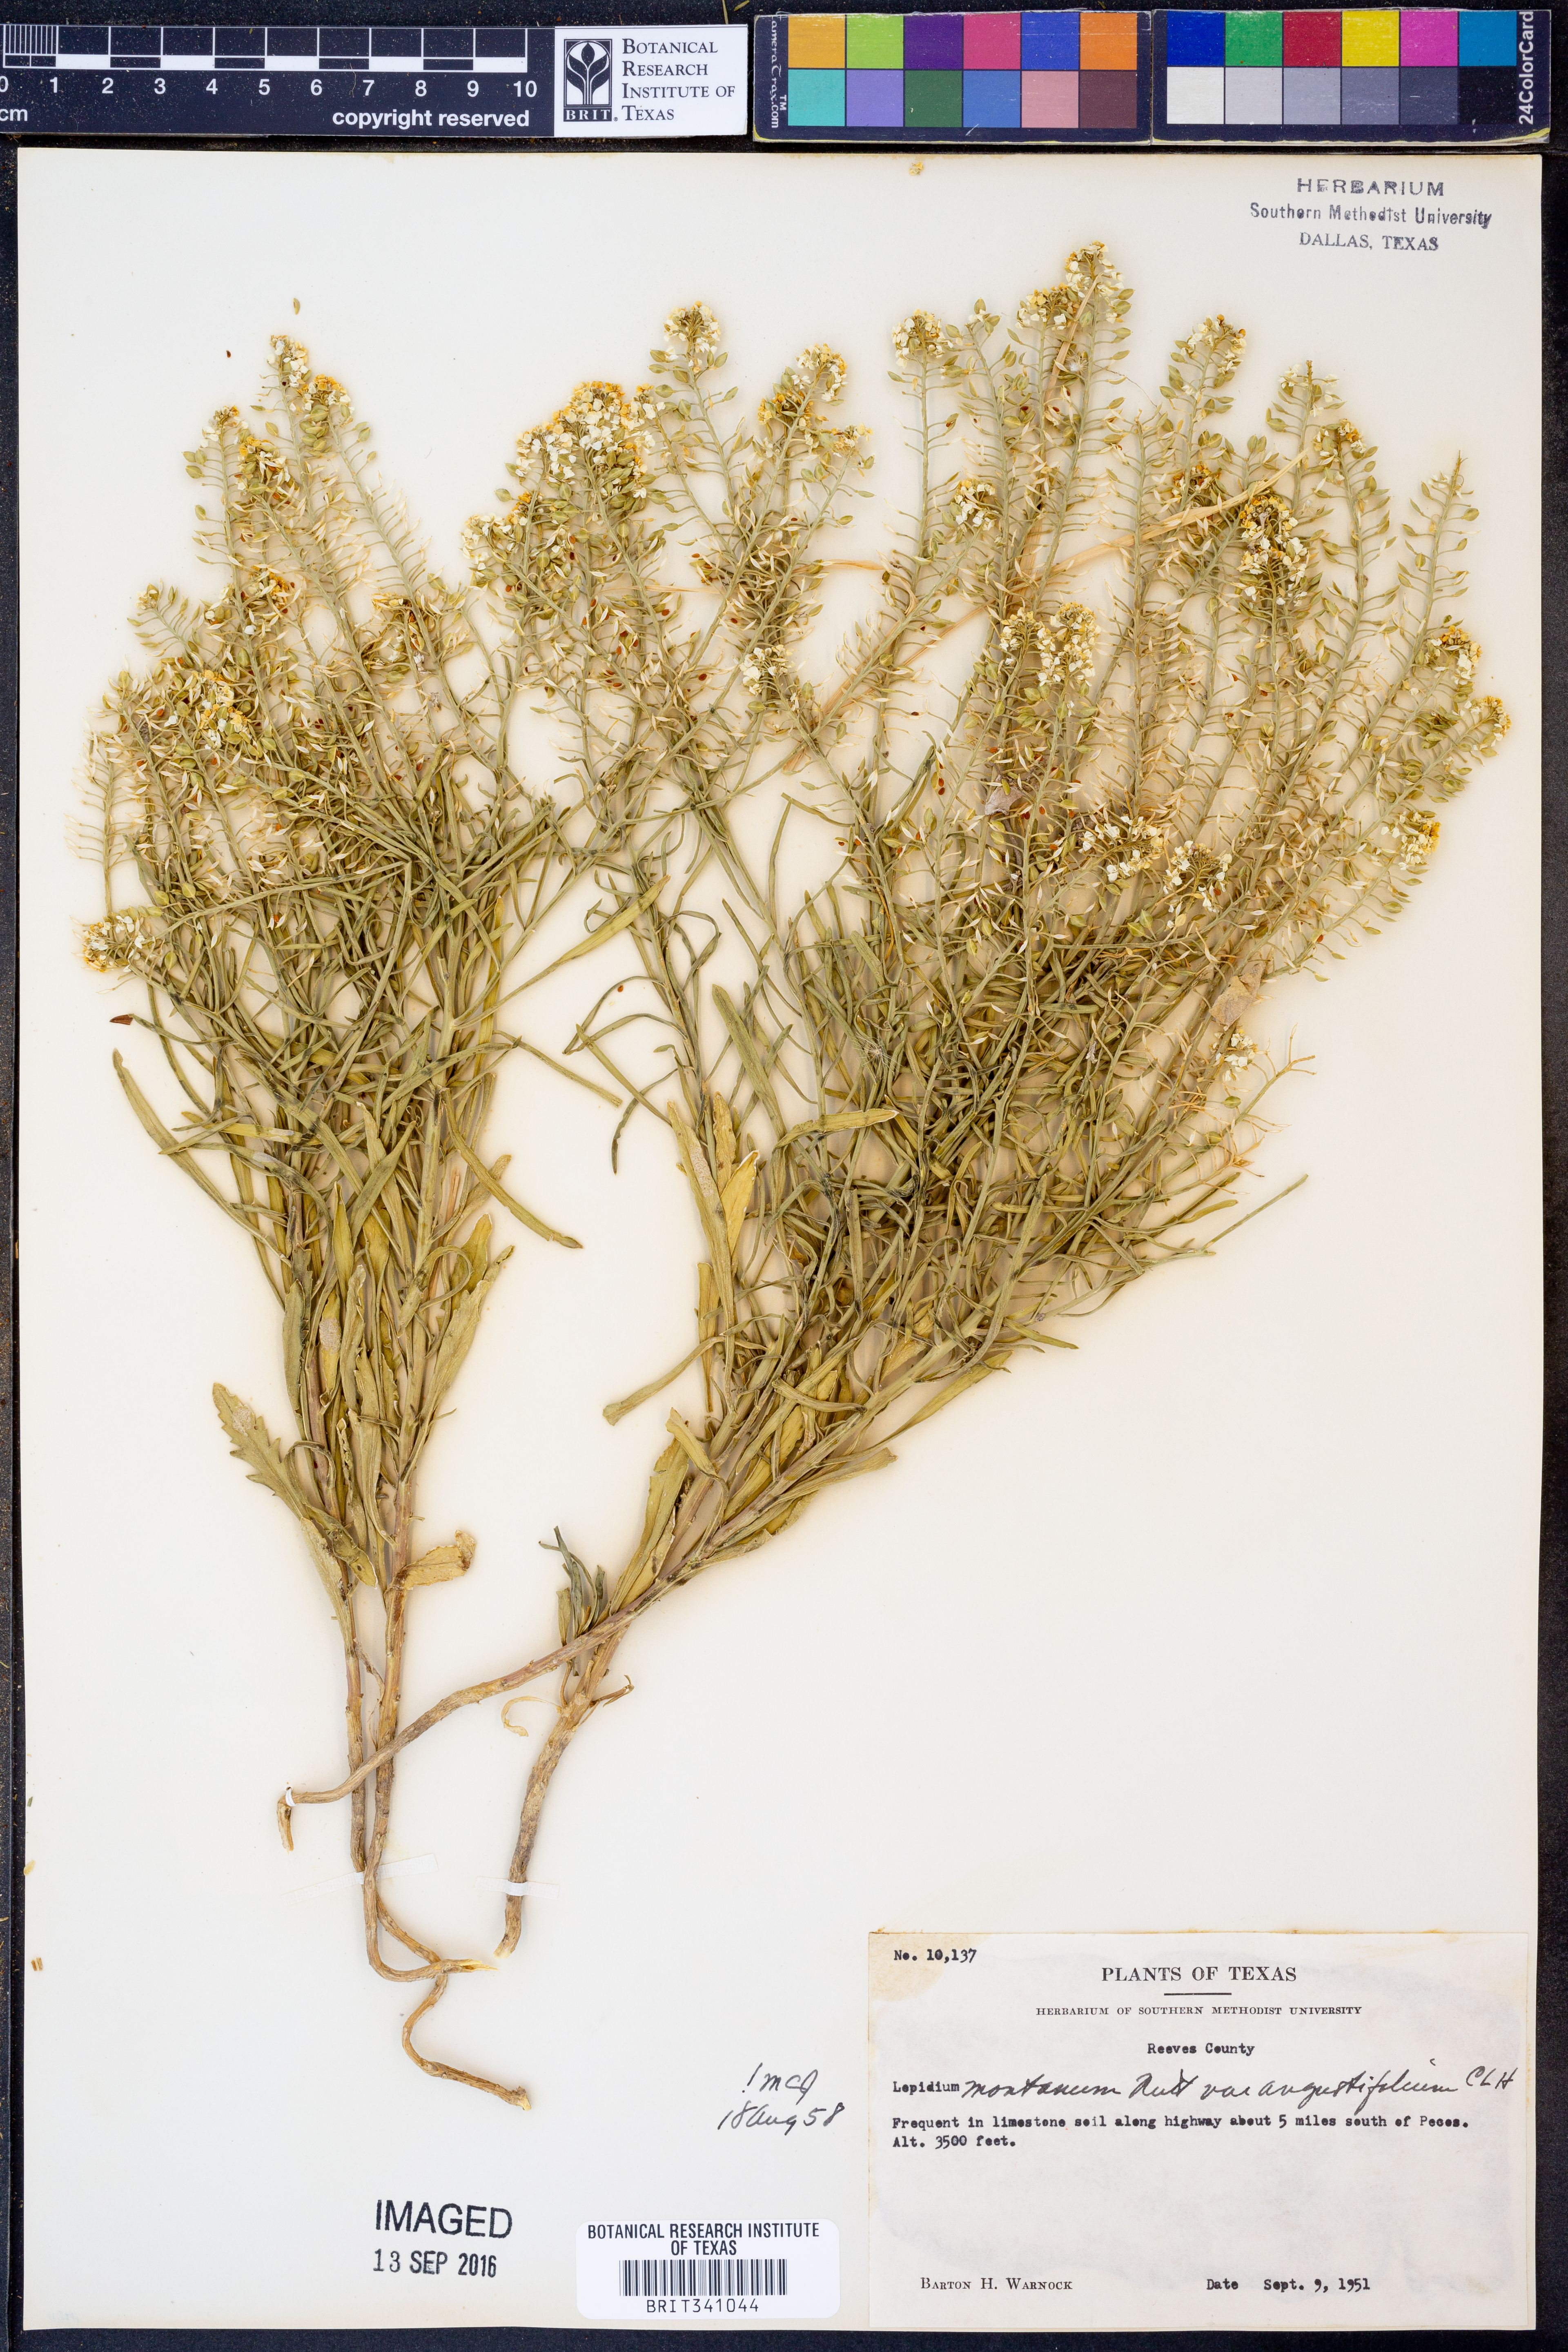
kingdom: Plantae
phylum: Tracheophyta
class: Magnoliopsida
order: Brassicales
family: Brassicaceae
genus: Lepidium
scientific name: Lepidium alyssoides
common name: Mesa pepperweed
